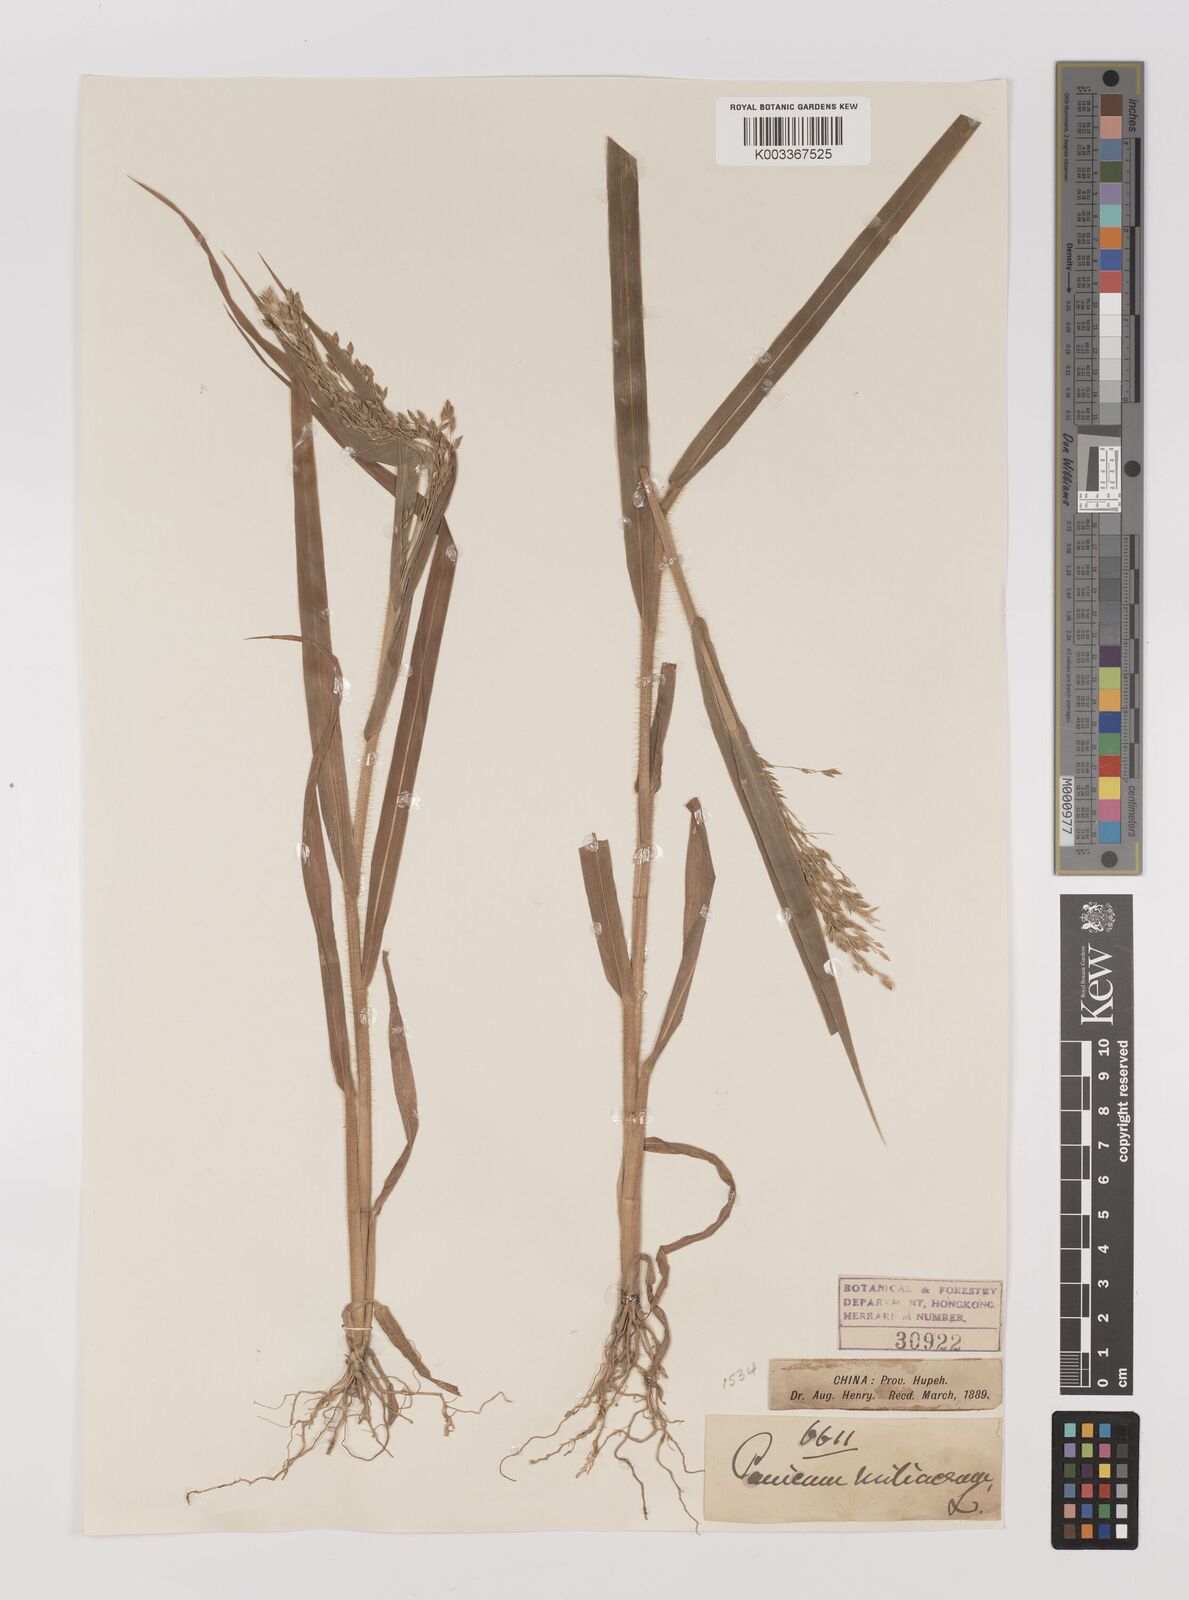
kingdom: Plantae
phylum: Tracheophyta
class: Liliopsida
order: Poales
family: Poaceae
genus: Panicum
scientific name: Panicum miliaceum
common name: Common millet
